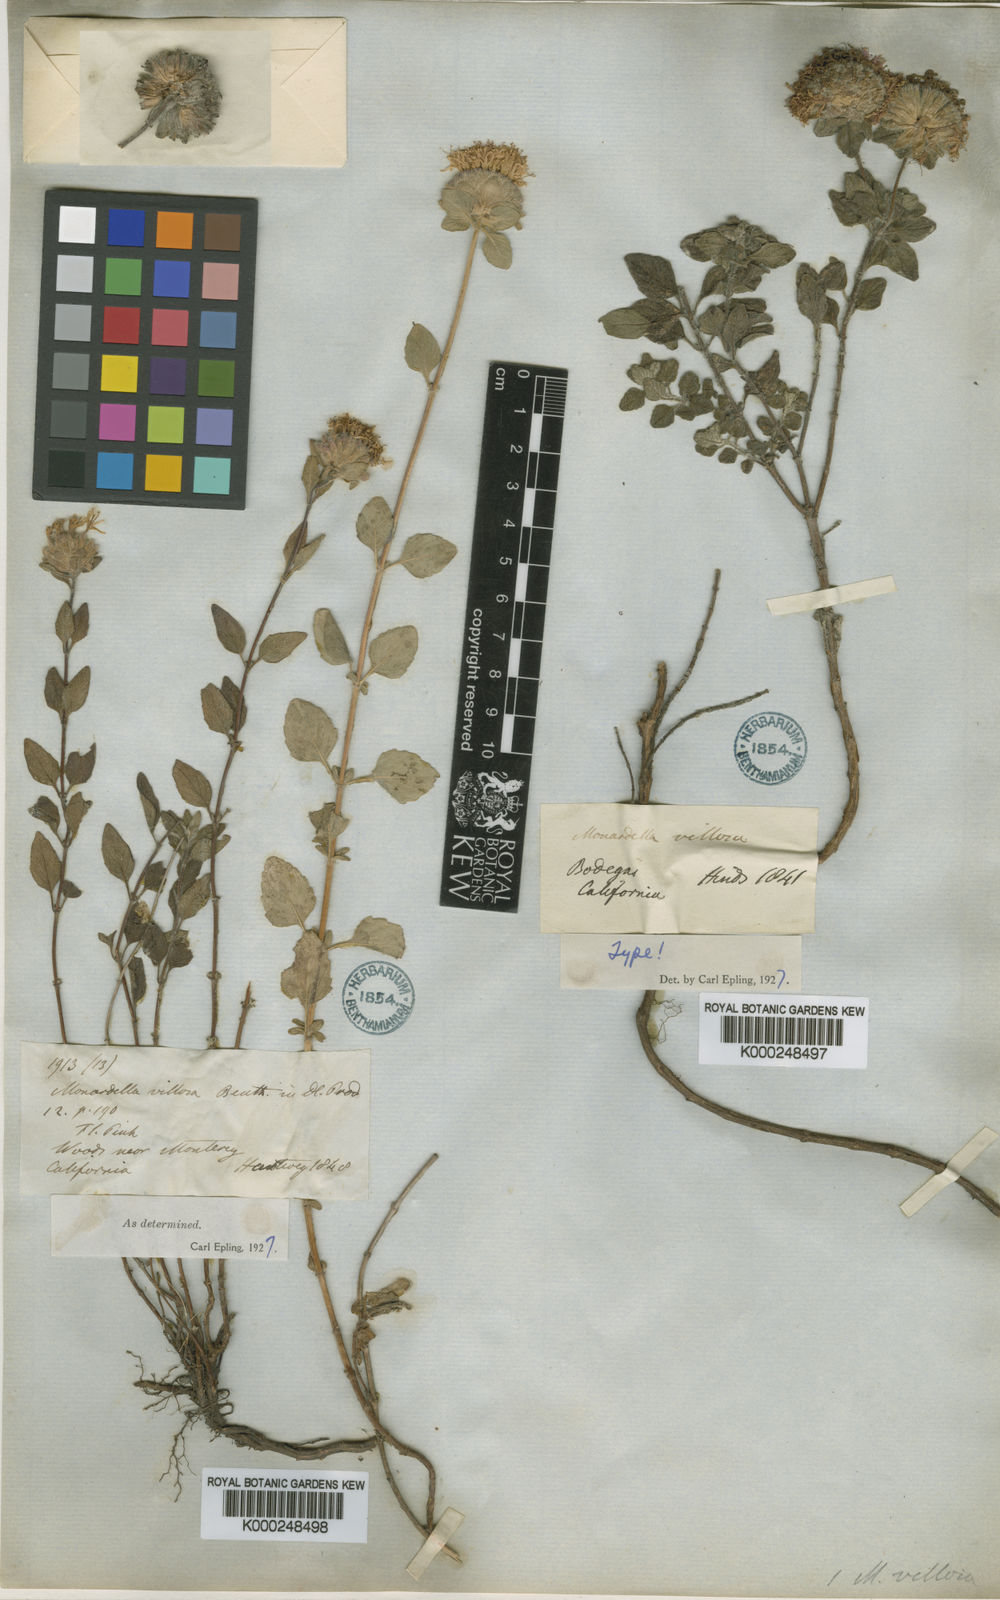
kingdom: Plantae
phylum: Tracheophyta
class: Magnoliopsida
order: Lamiales
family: Lamiaceae
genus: Monardella
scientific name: Monardella odoratissima
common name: Pacific monardella
